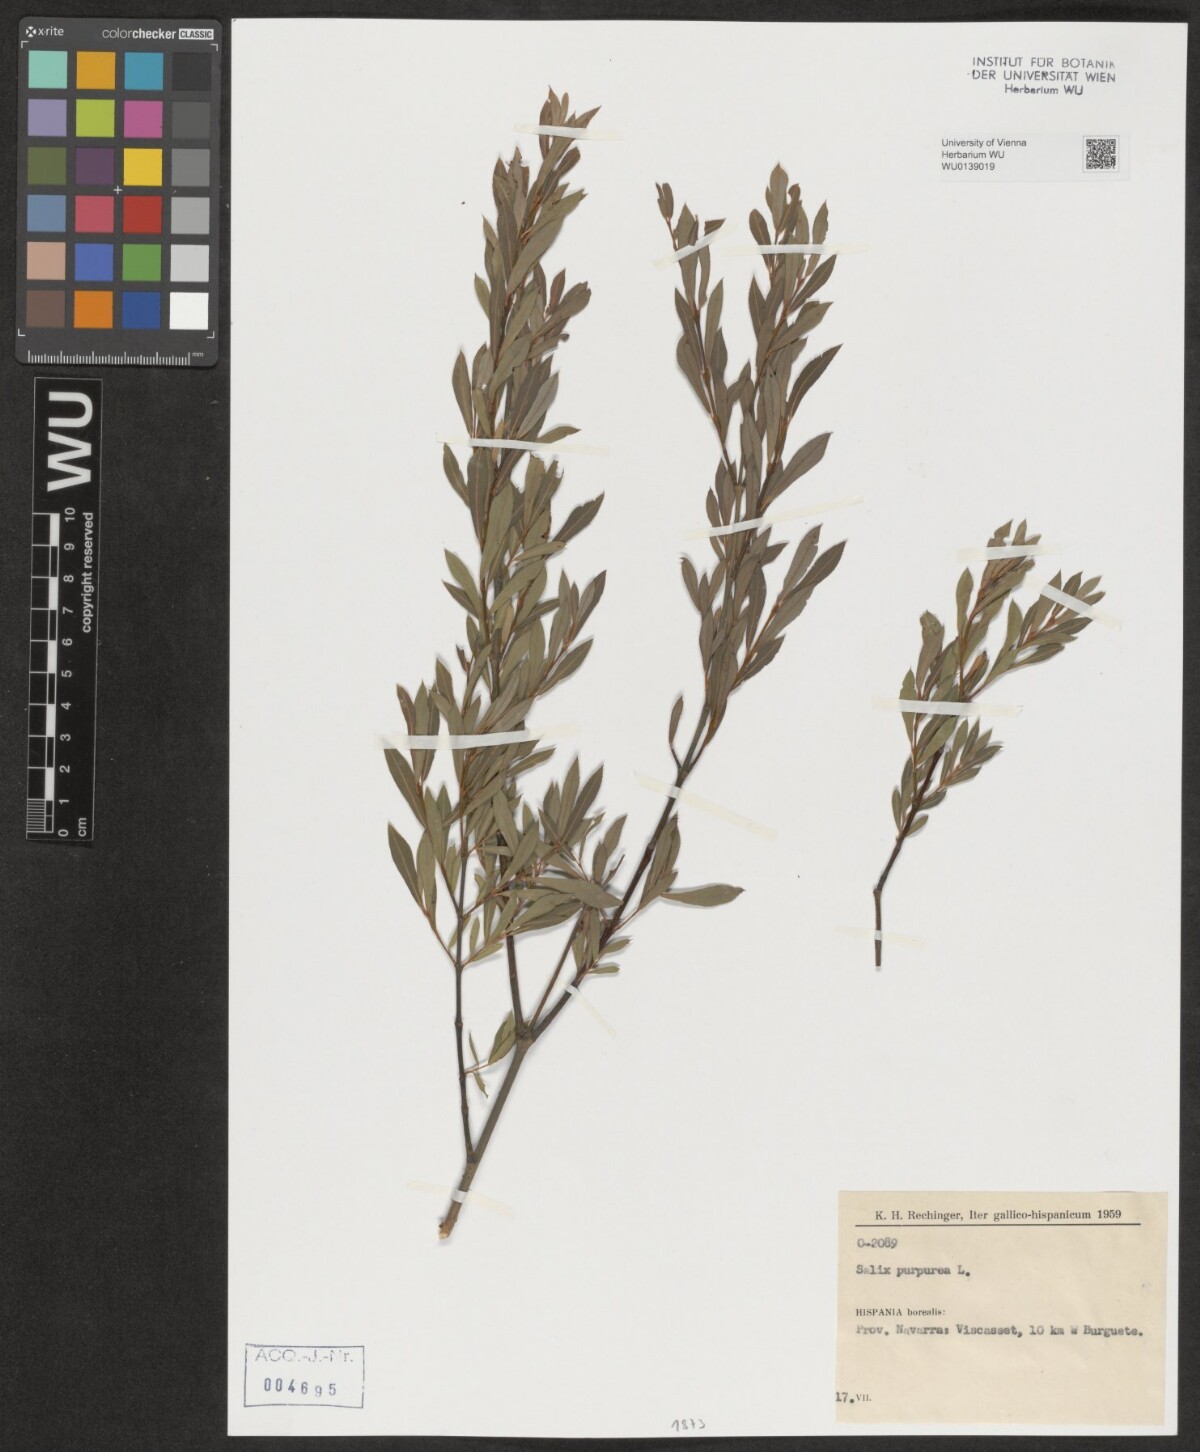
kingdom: Plantae
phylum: Tracheophyta
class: Magnoliopsida
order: Malpighiales
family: Salicaceae
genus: Salix
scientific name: Salix purpurea
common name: Purple willow
